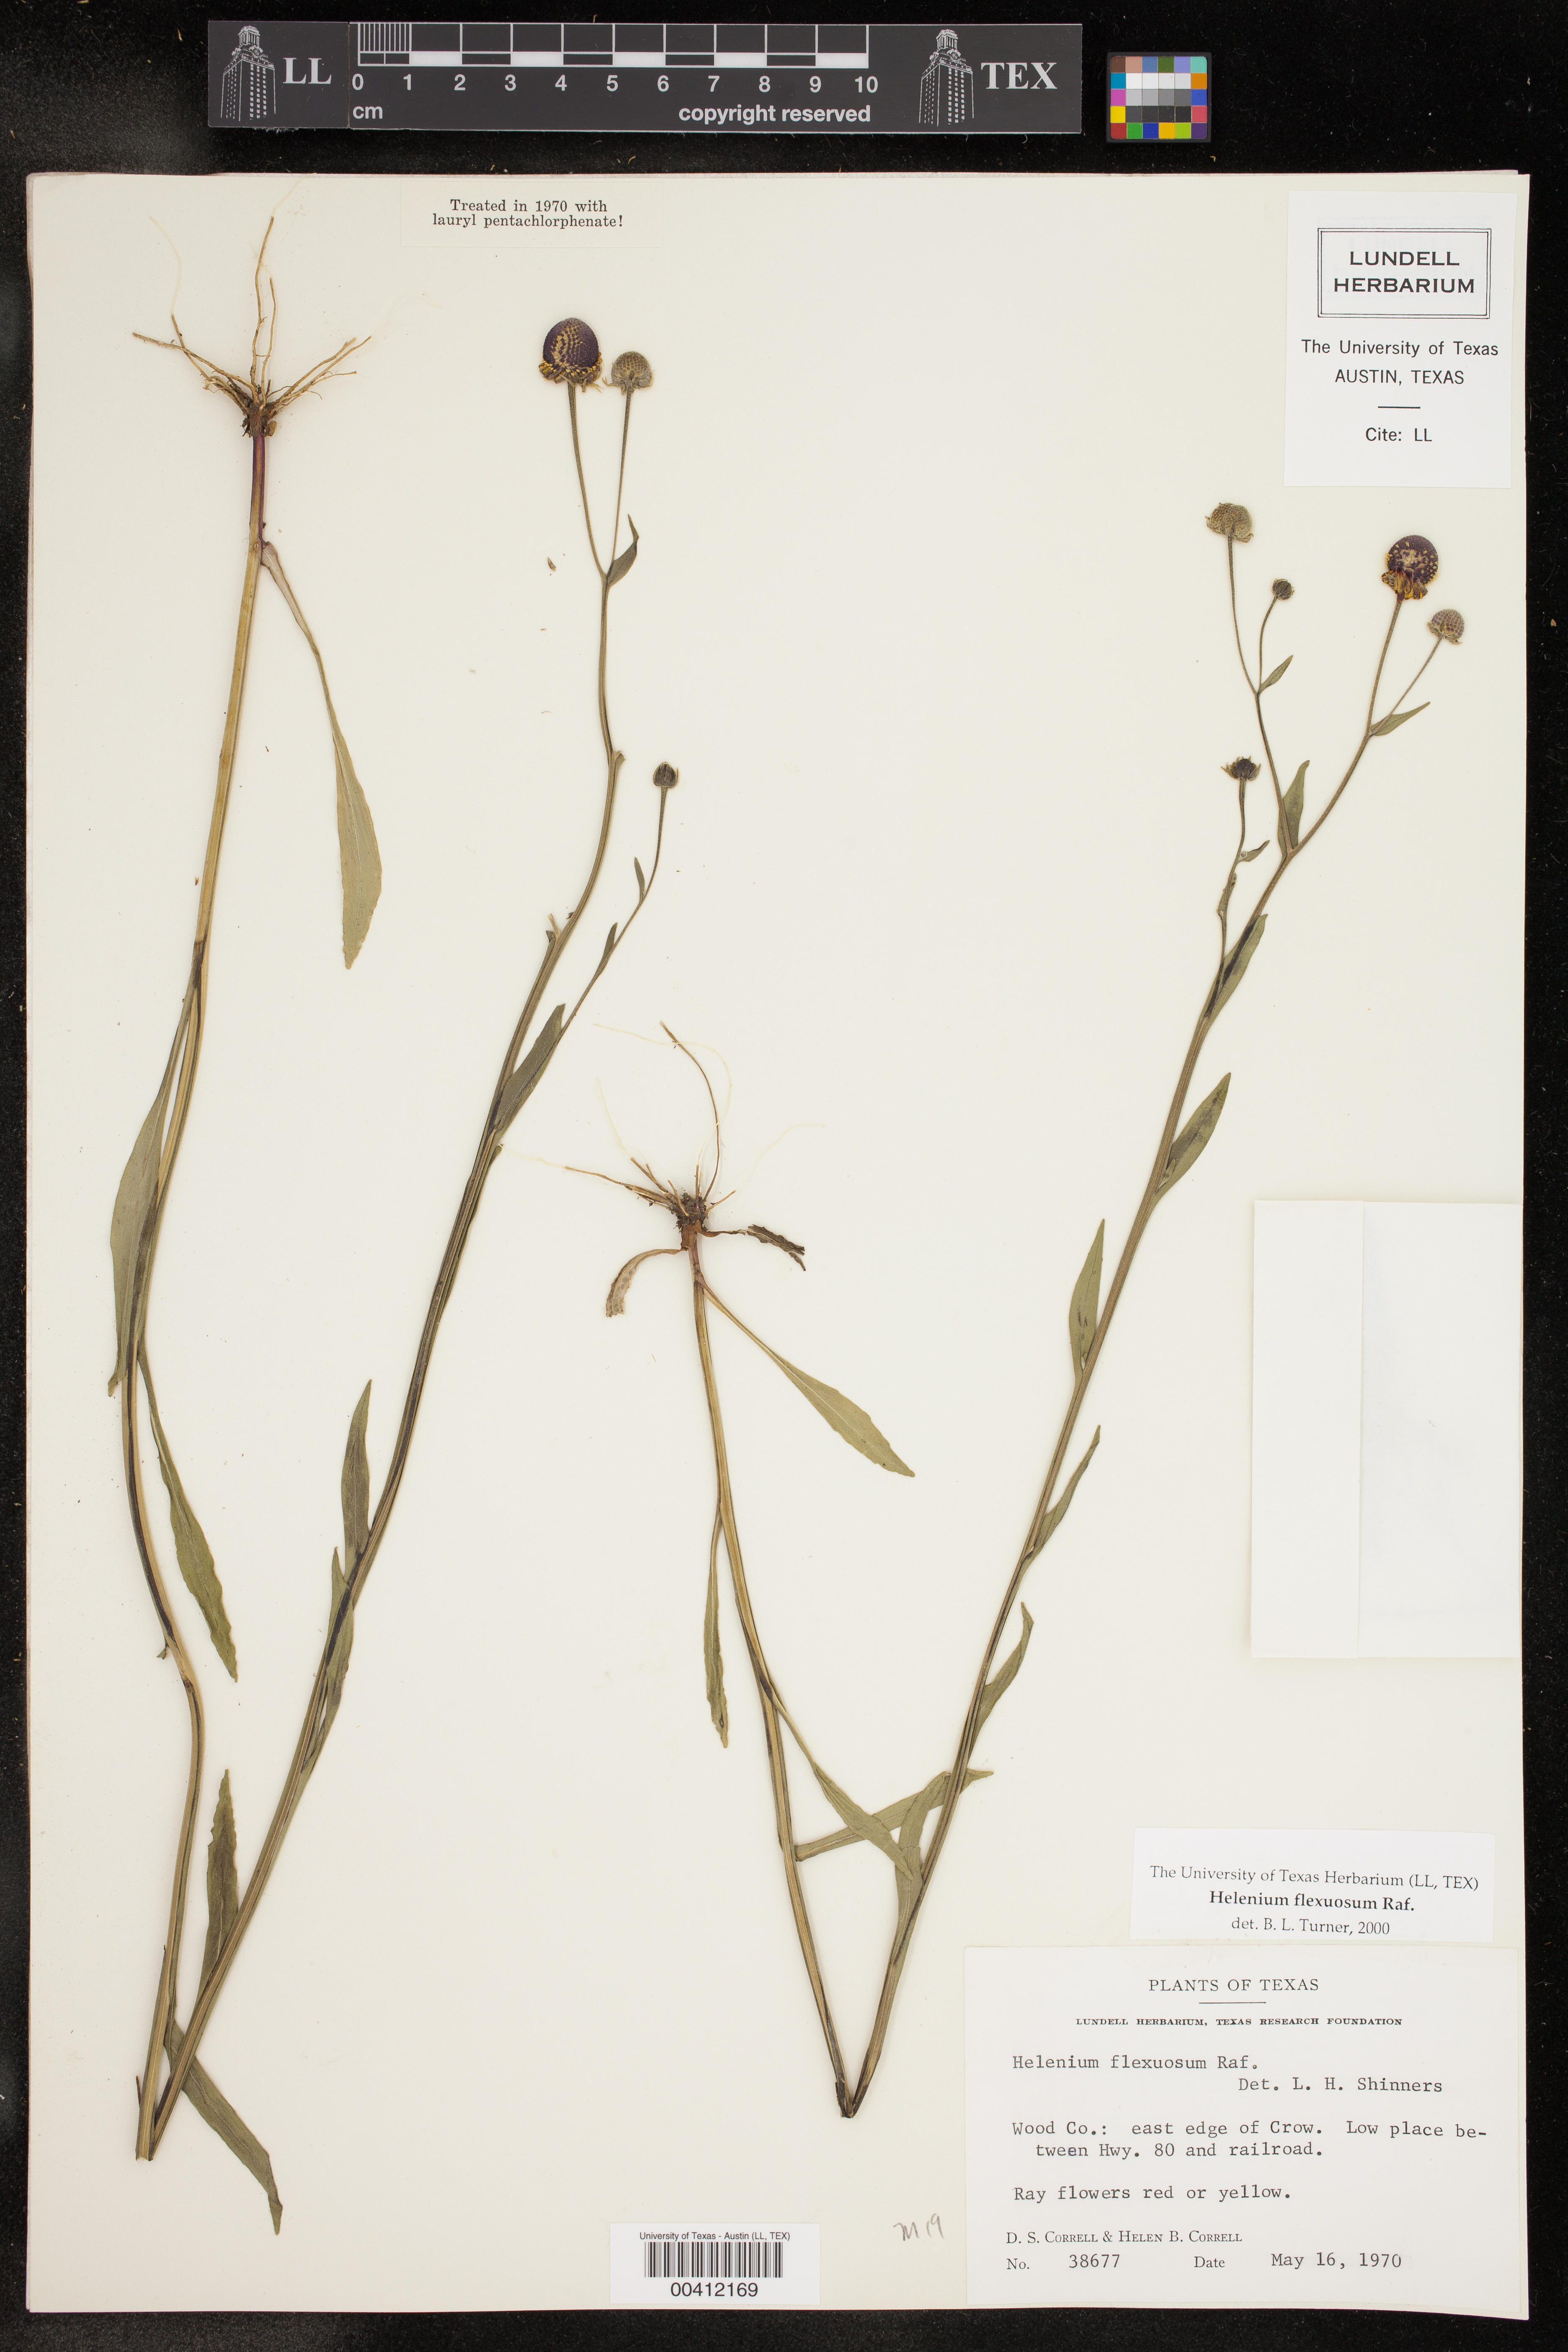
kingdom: Plantae
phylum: Tracheophyta
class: Magnoliopsida
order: Asterales
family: Asteraceae
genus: Helenium
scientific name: Helenium flexuosum
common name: Naked-flowered sneezeweed
